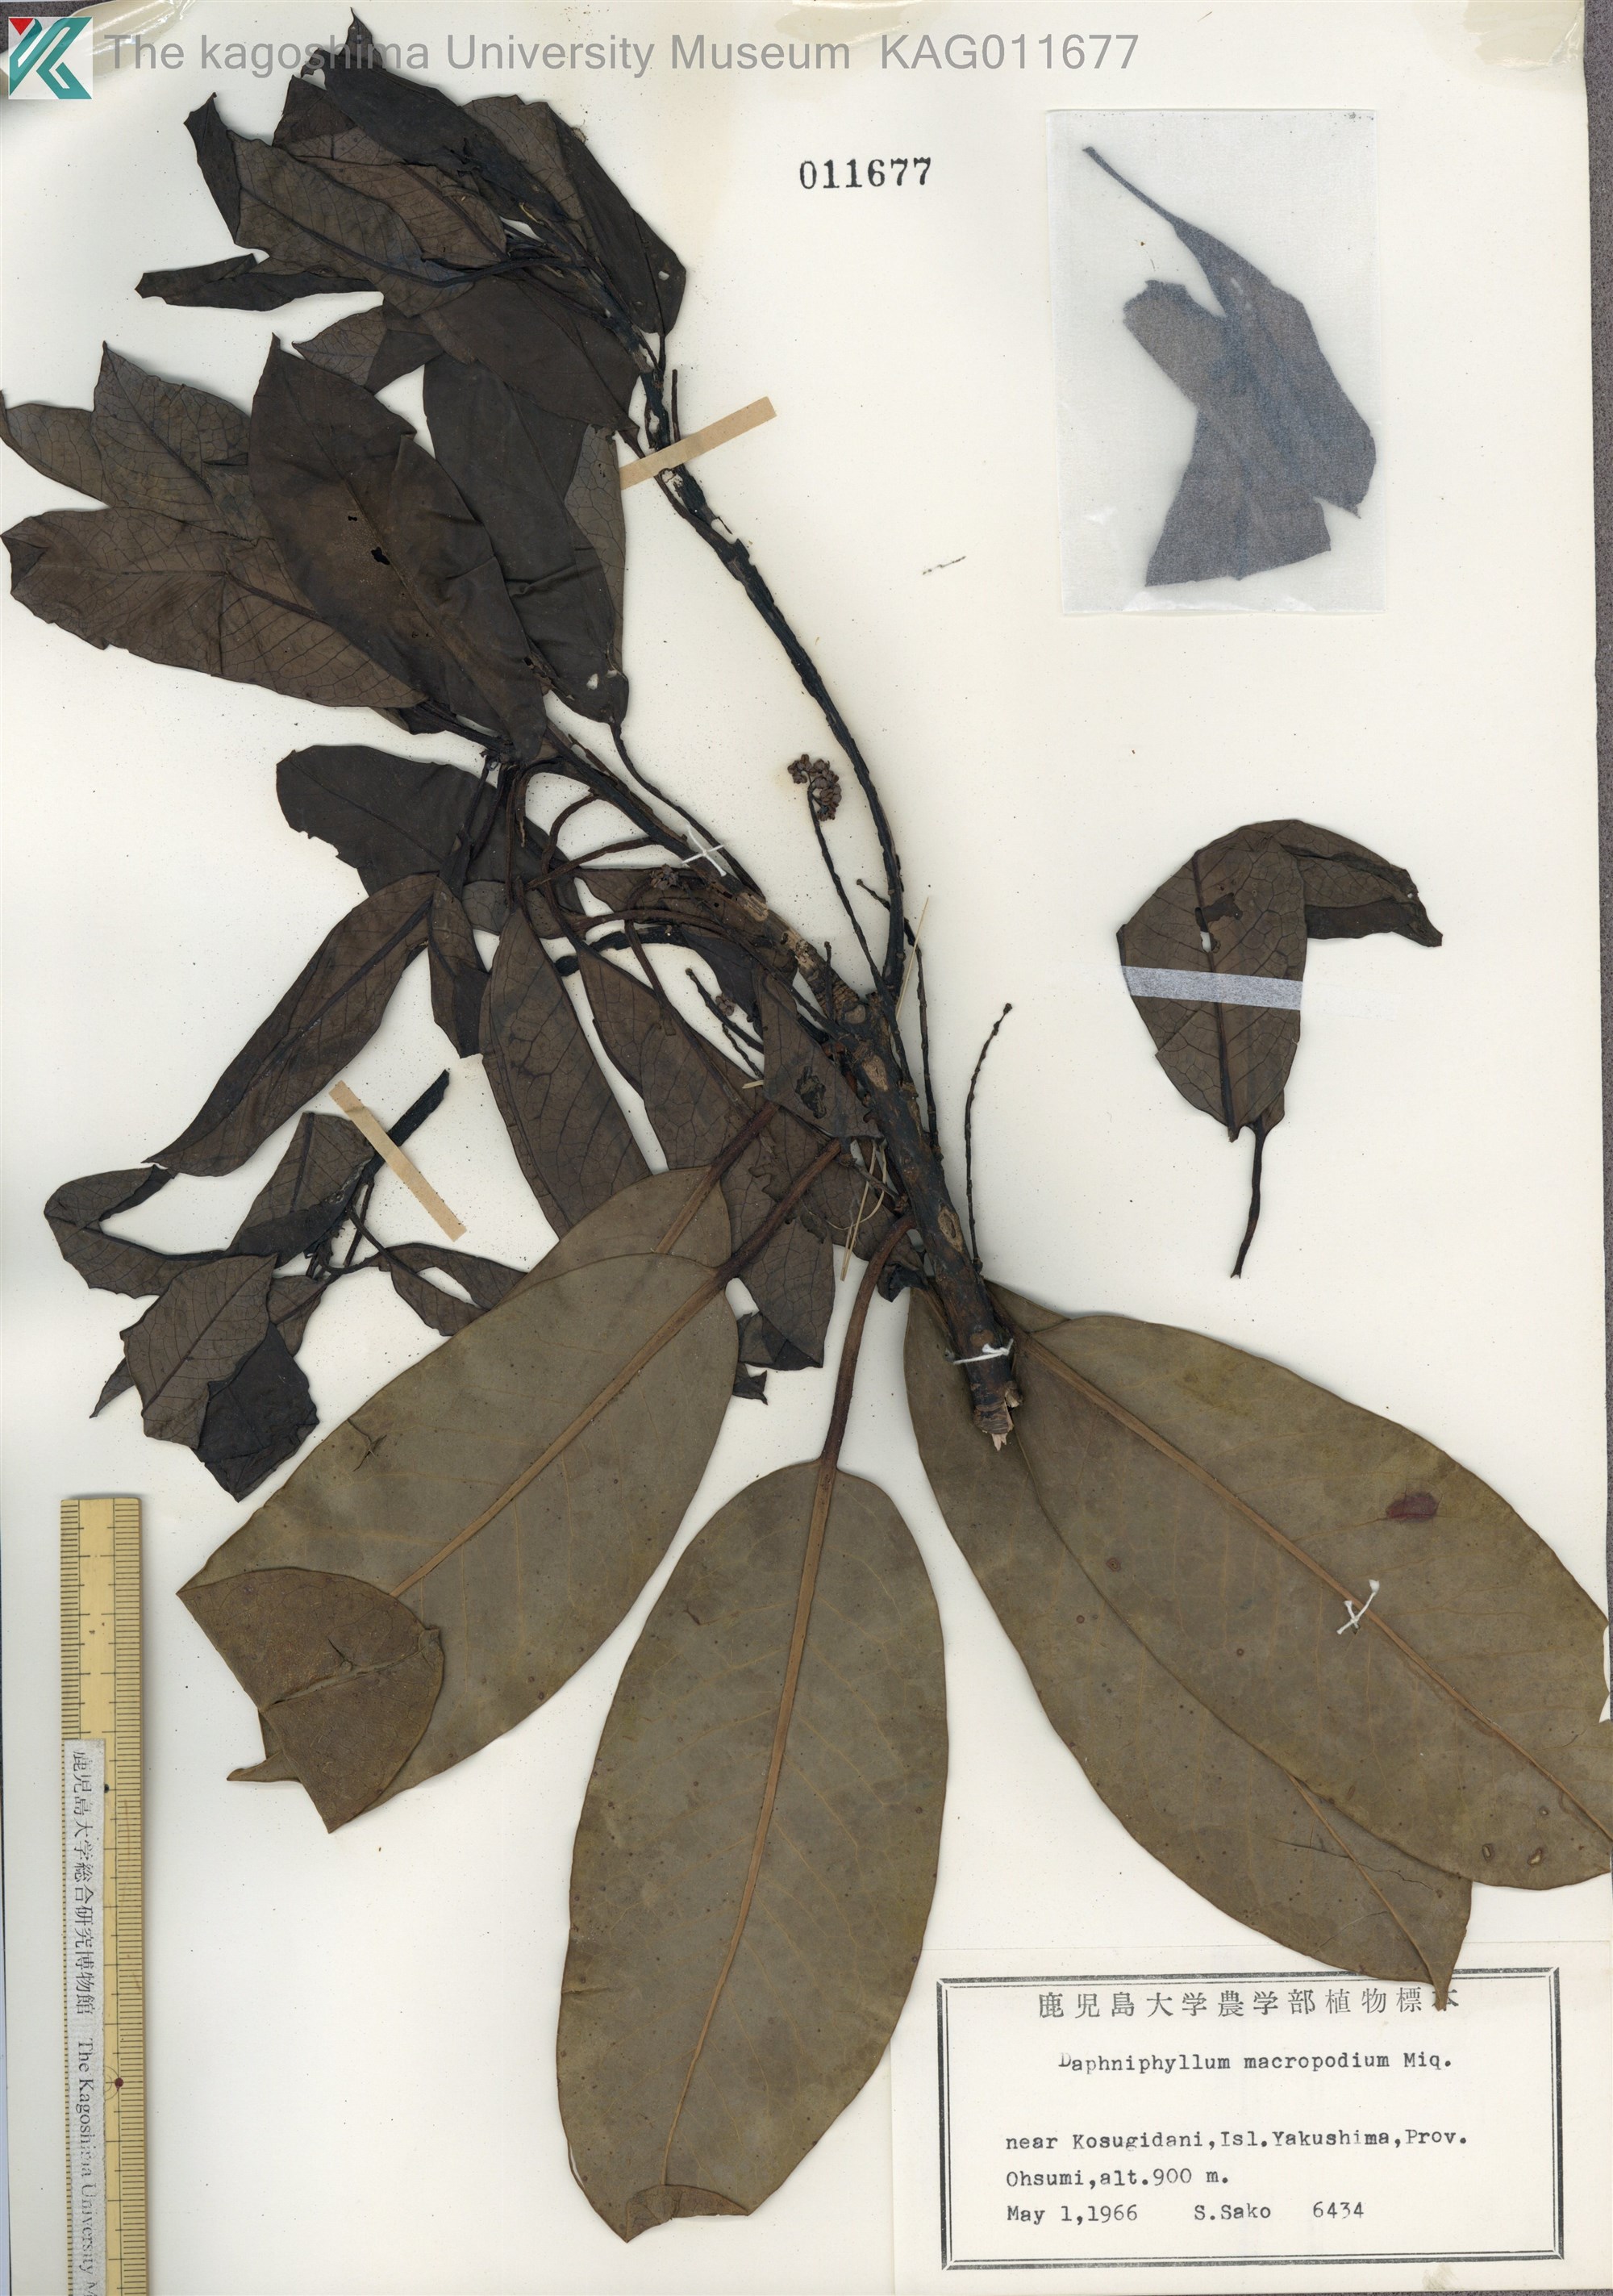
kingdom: Plantae
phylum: Tracheophyta
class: Magnoliopsida
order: Saxifragales
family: Daphniphyllaceae
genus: Daphniphyllum
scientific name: Daphniphyllum macropodum
